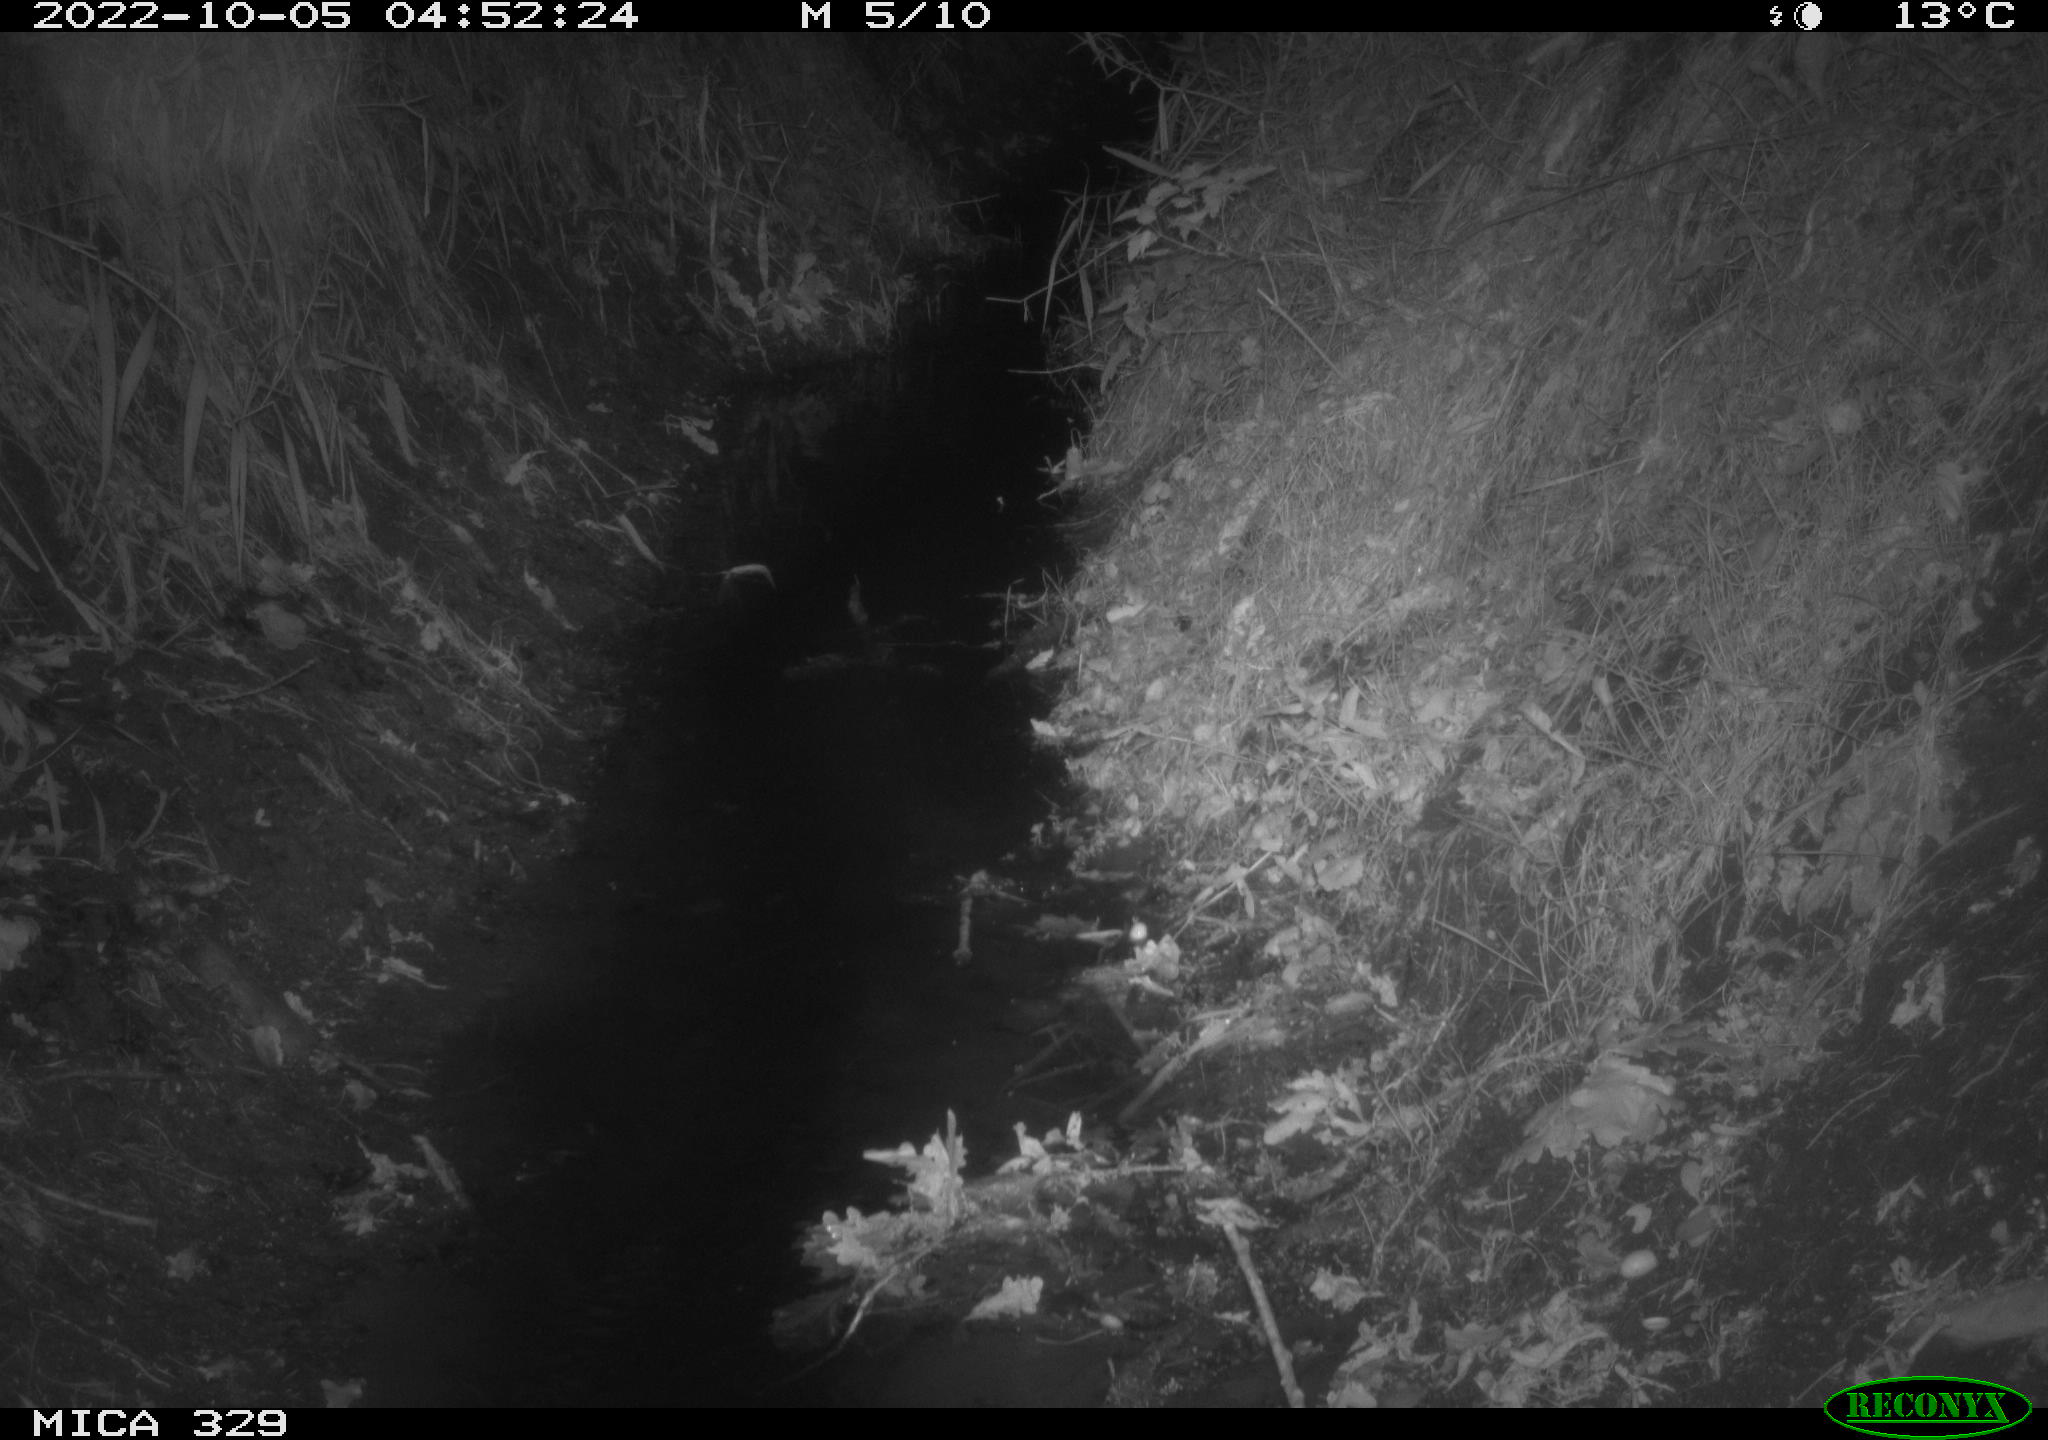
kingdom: Animalia
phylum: Chordata
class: Mammalia
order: Rodentia
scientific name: Rodentia
